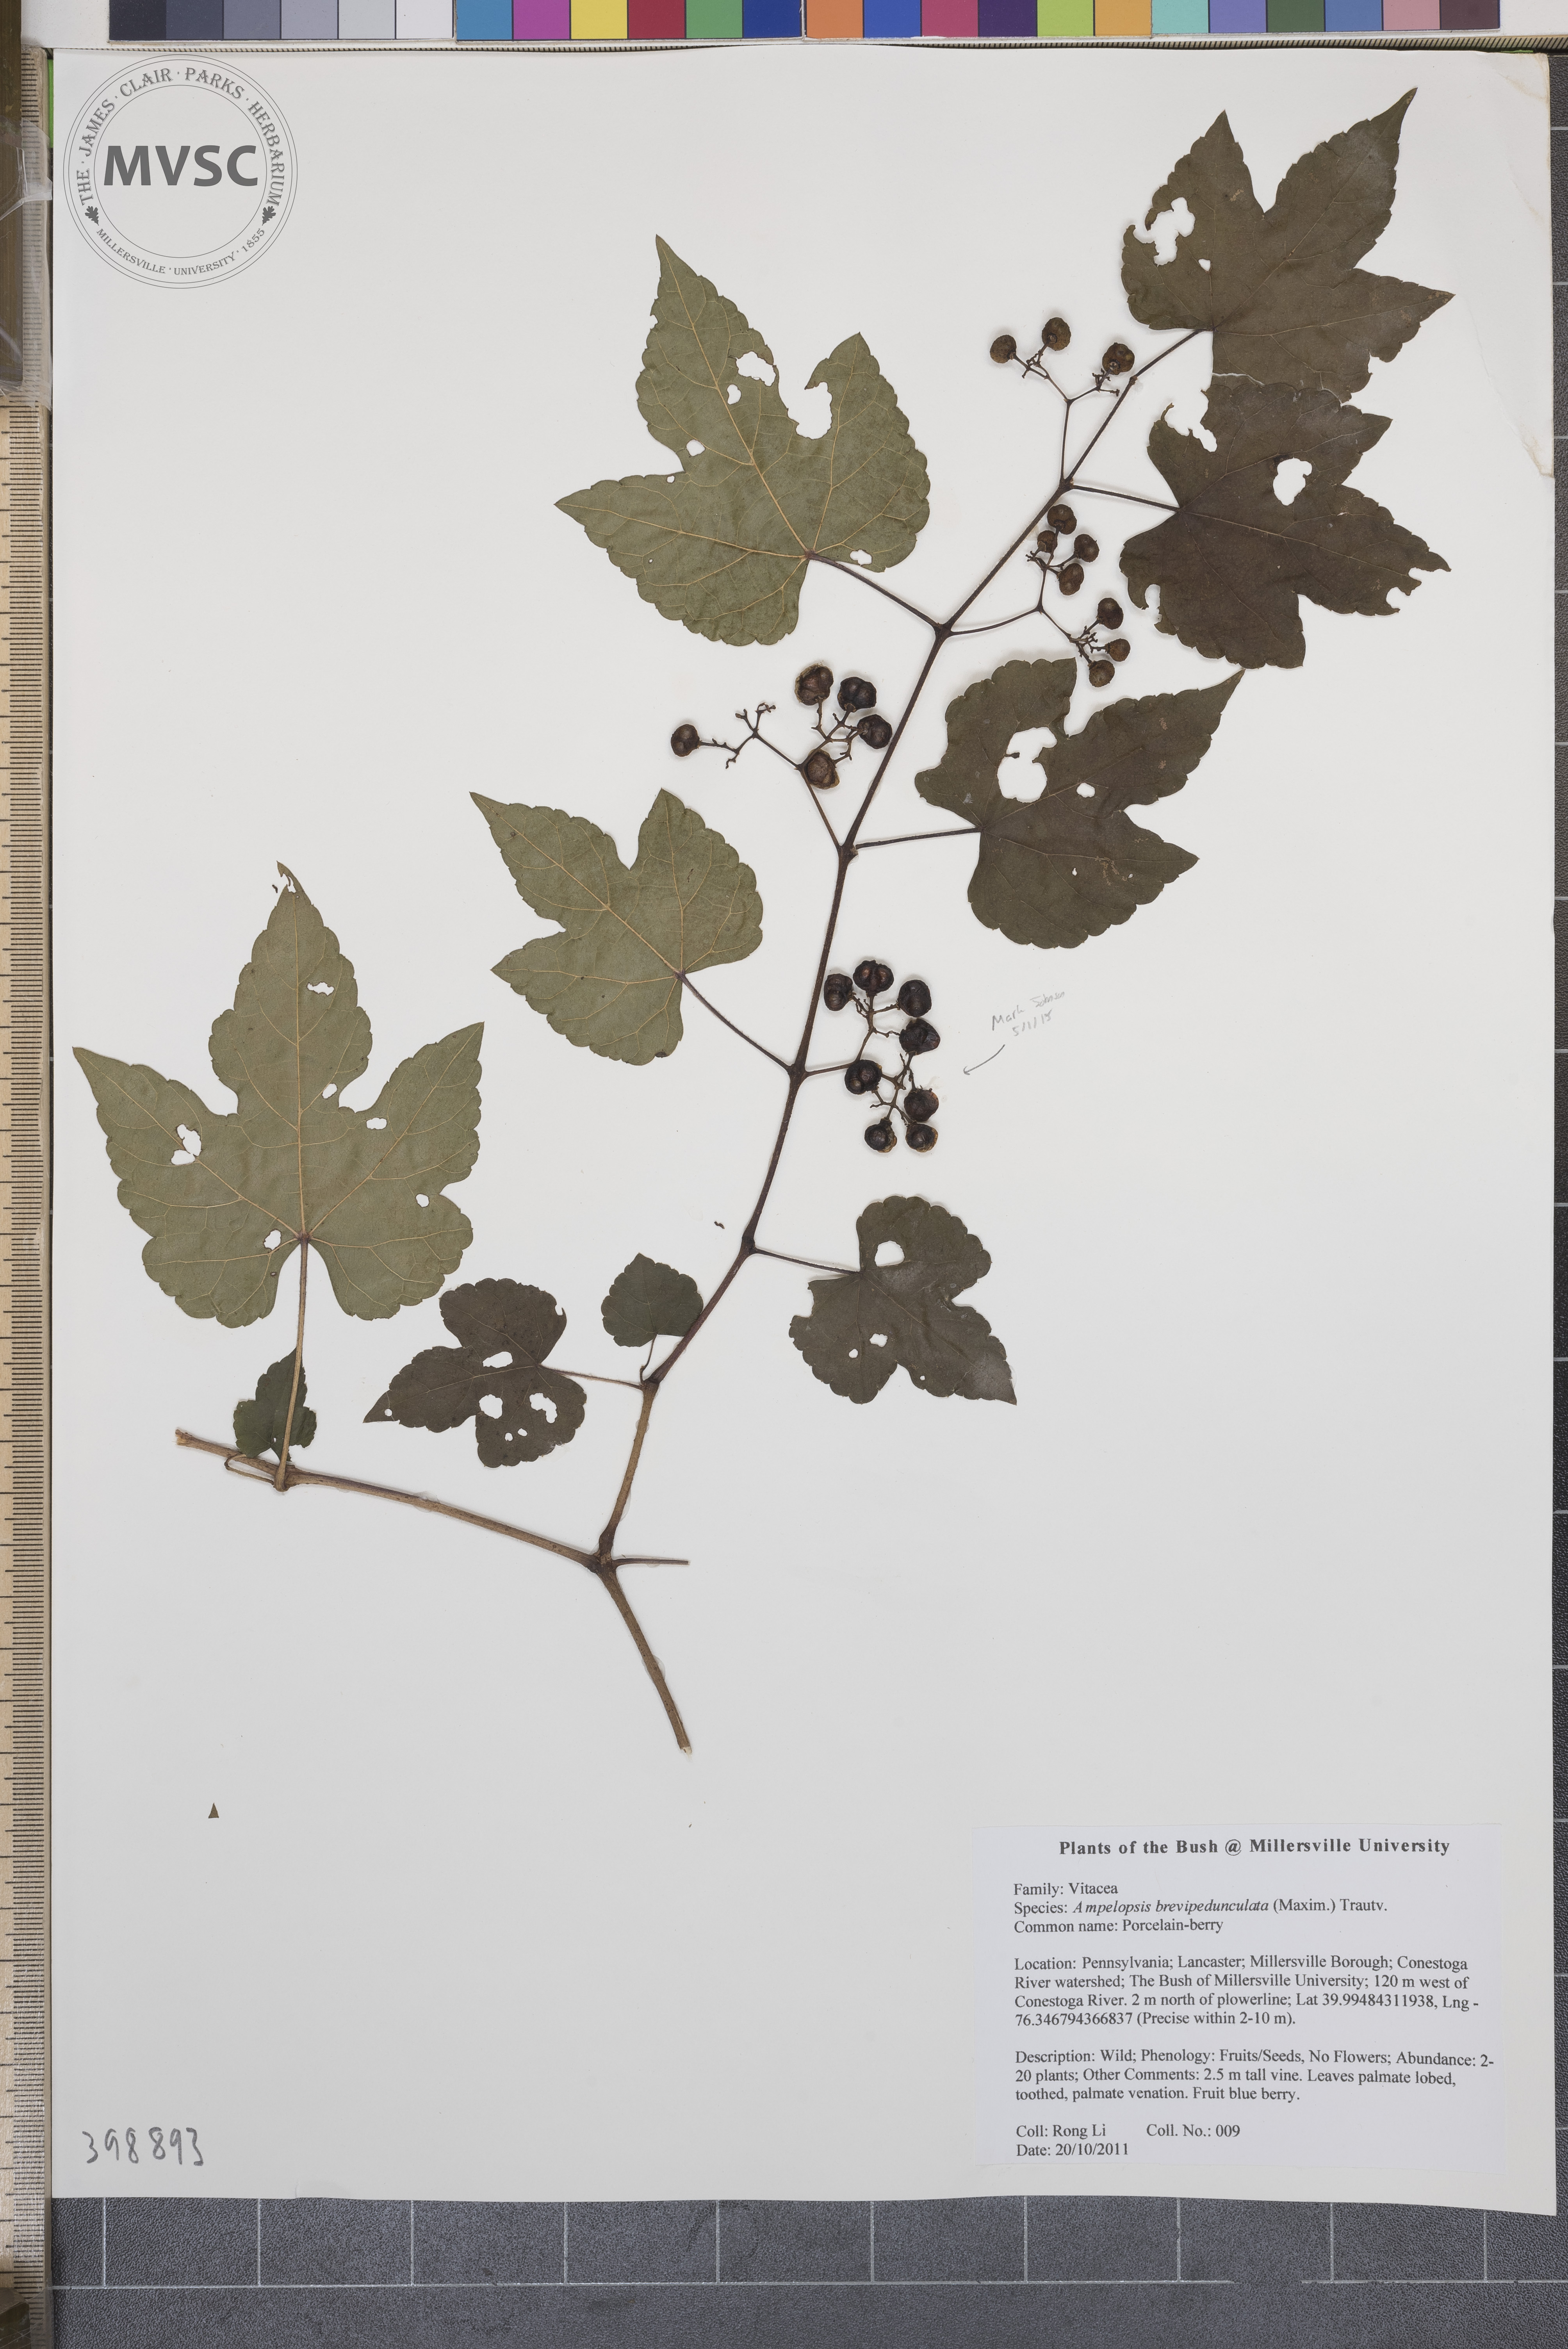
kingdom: Plantae
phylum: Tracheophyta
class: Magnoliopsida
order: Vitales
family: Vitaceae
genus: Ampelopsis
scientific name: Ampelopsis brevipedunculata
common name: Porcelain-berry
